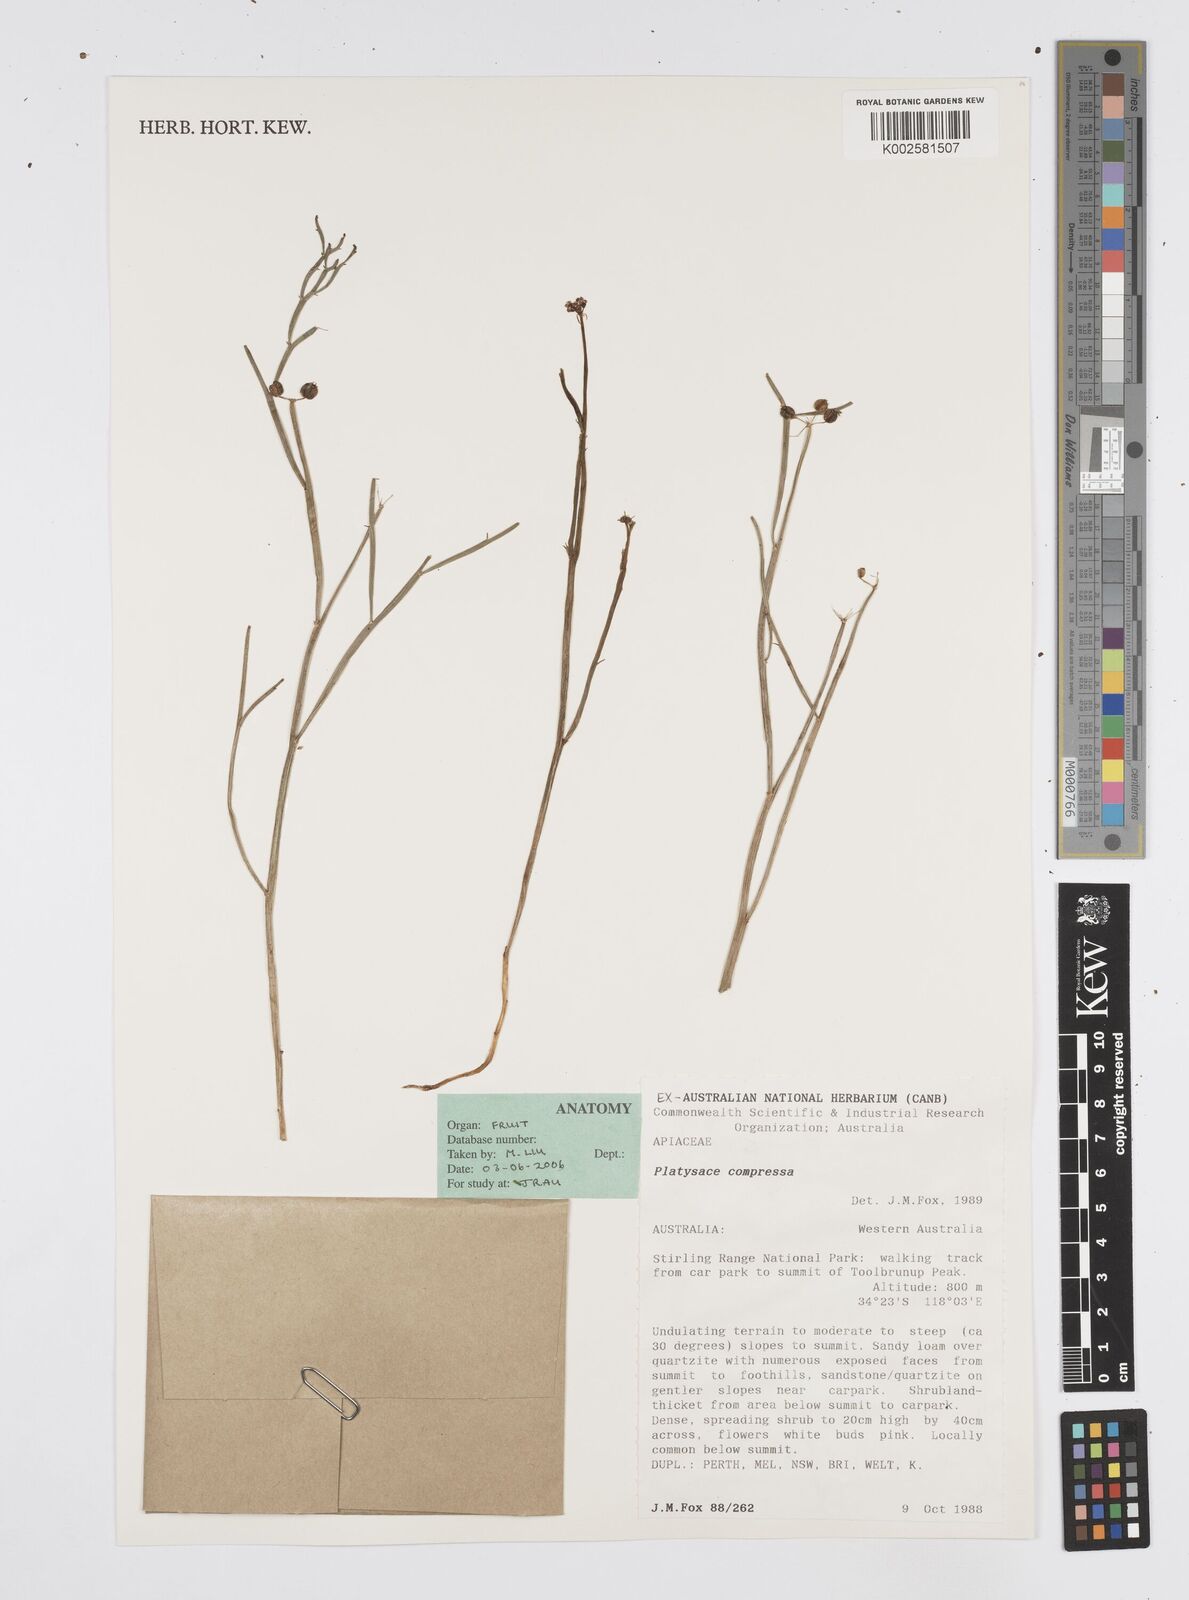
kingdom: Plantae
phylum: Tracheophyta
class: Magnoliopsida
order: Apiales
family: Apiaceae
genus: Centella
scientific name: Centella
